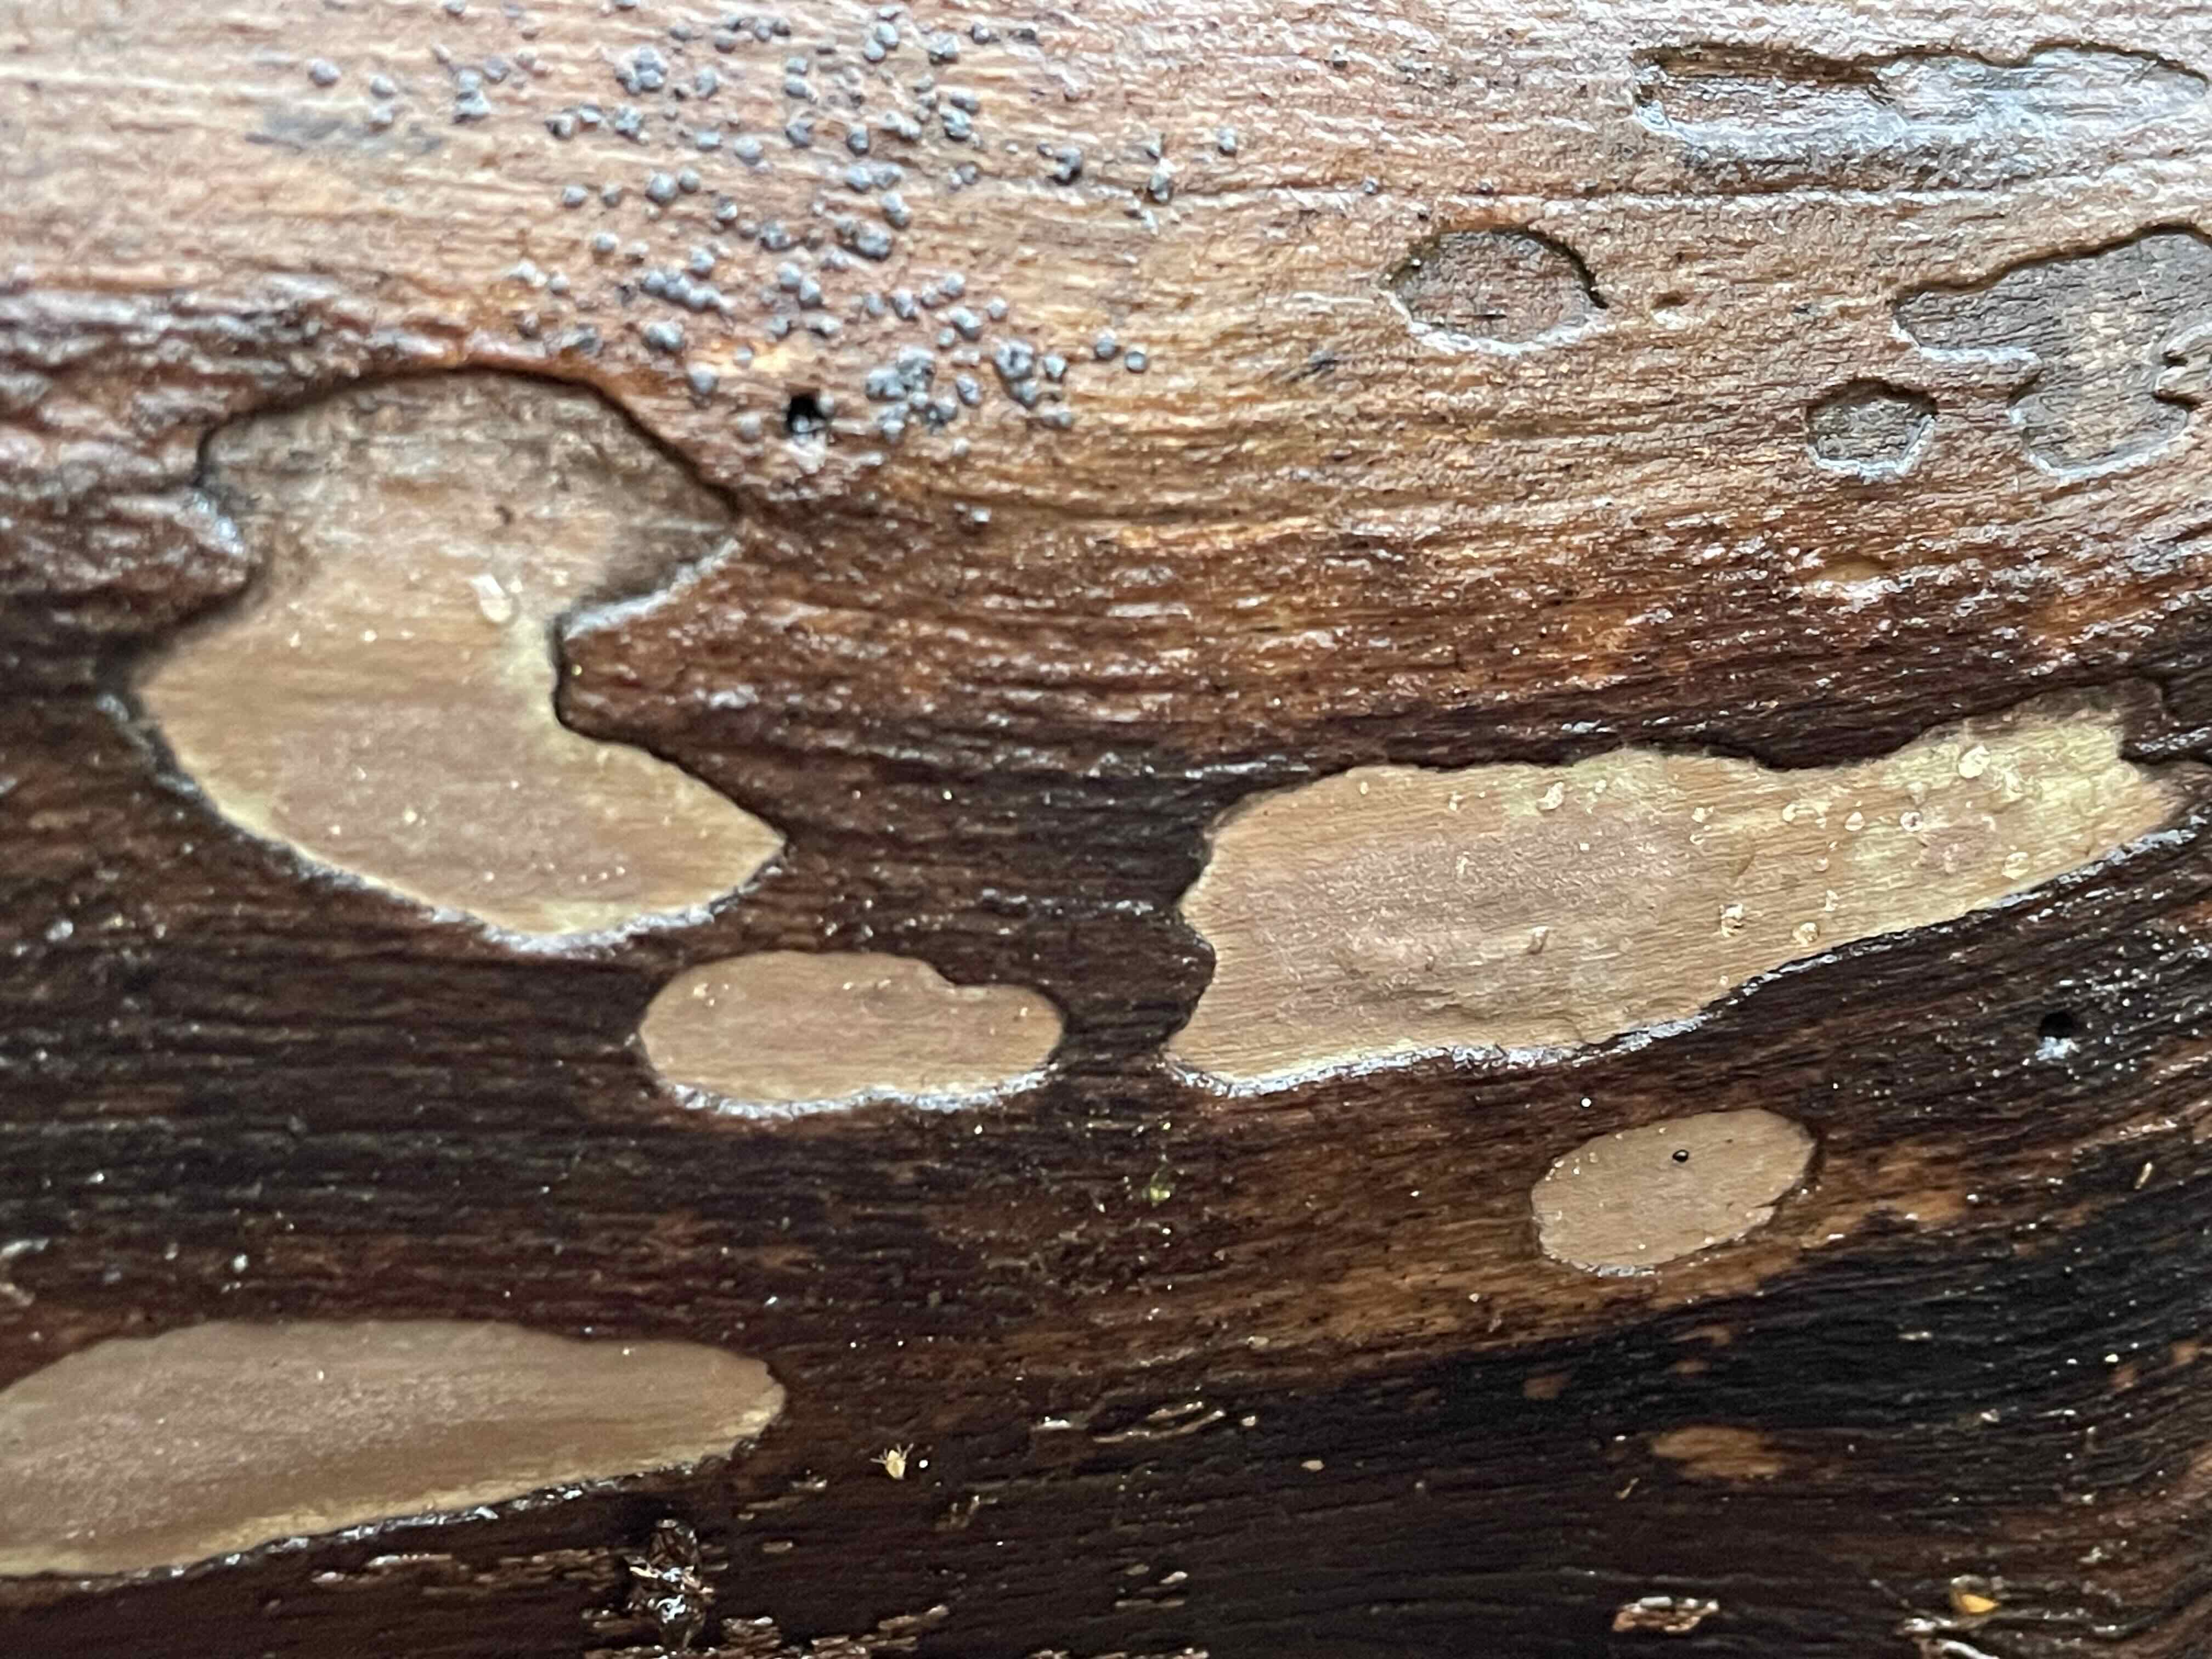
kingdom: Fungi
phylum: Ascomycota
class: Sordariomycetes
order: Xylariales
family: Hypoxylaceae
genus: Hypoxylon
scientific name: Hypoxylon petriniae
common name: nedsænket kulbær
